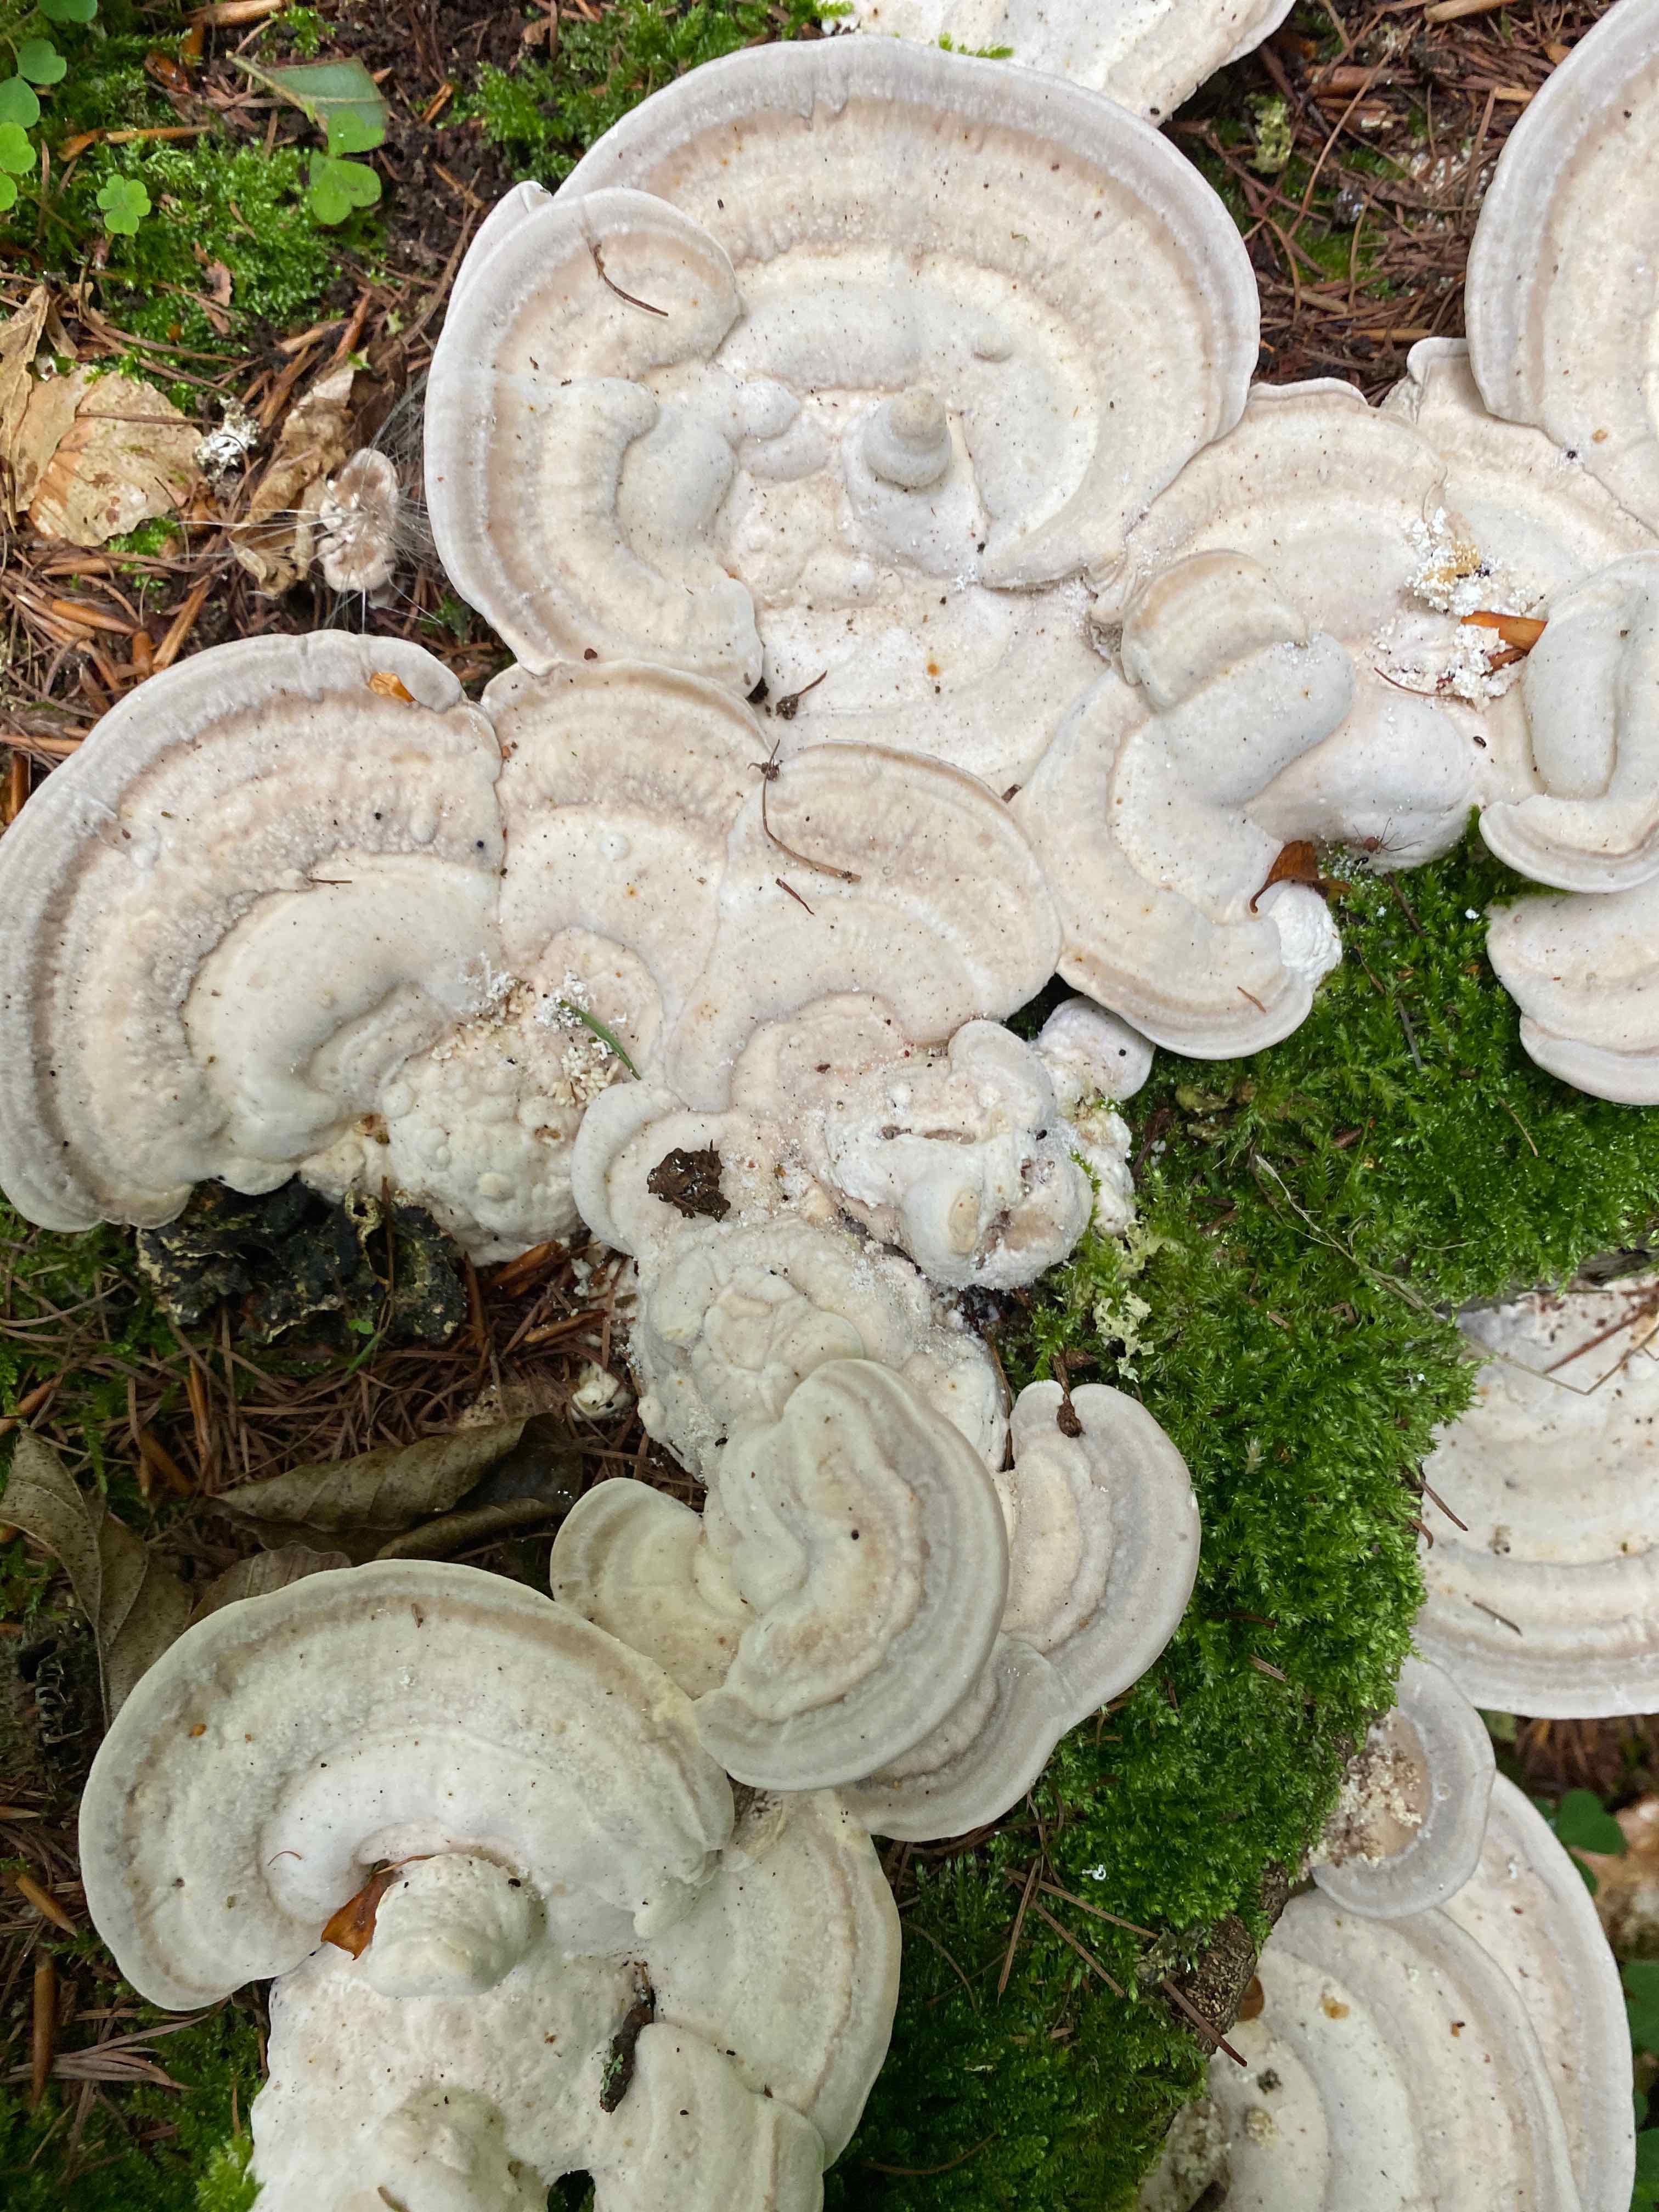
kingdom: Fungi
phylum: Basidiomycota
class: Agaricomycetes
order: Polyporales
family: Polyporaceae
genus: Trametes
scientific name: Trametes gibbosa
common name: puklet læderporesvamp
